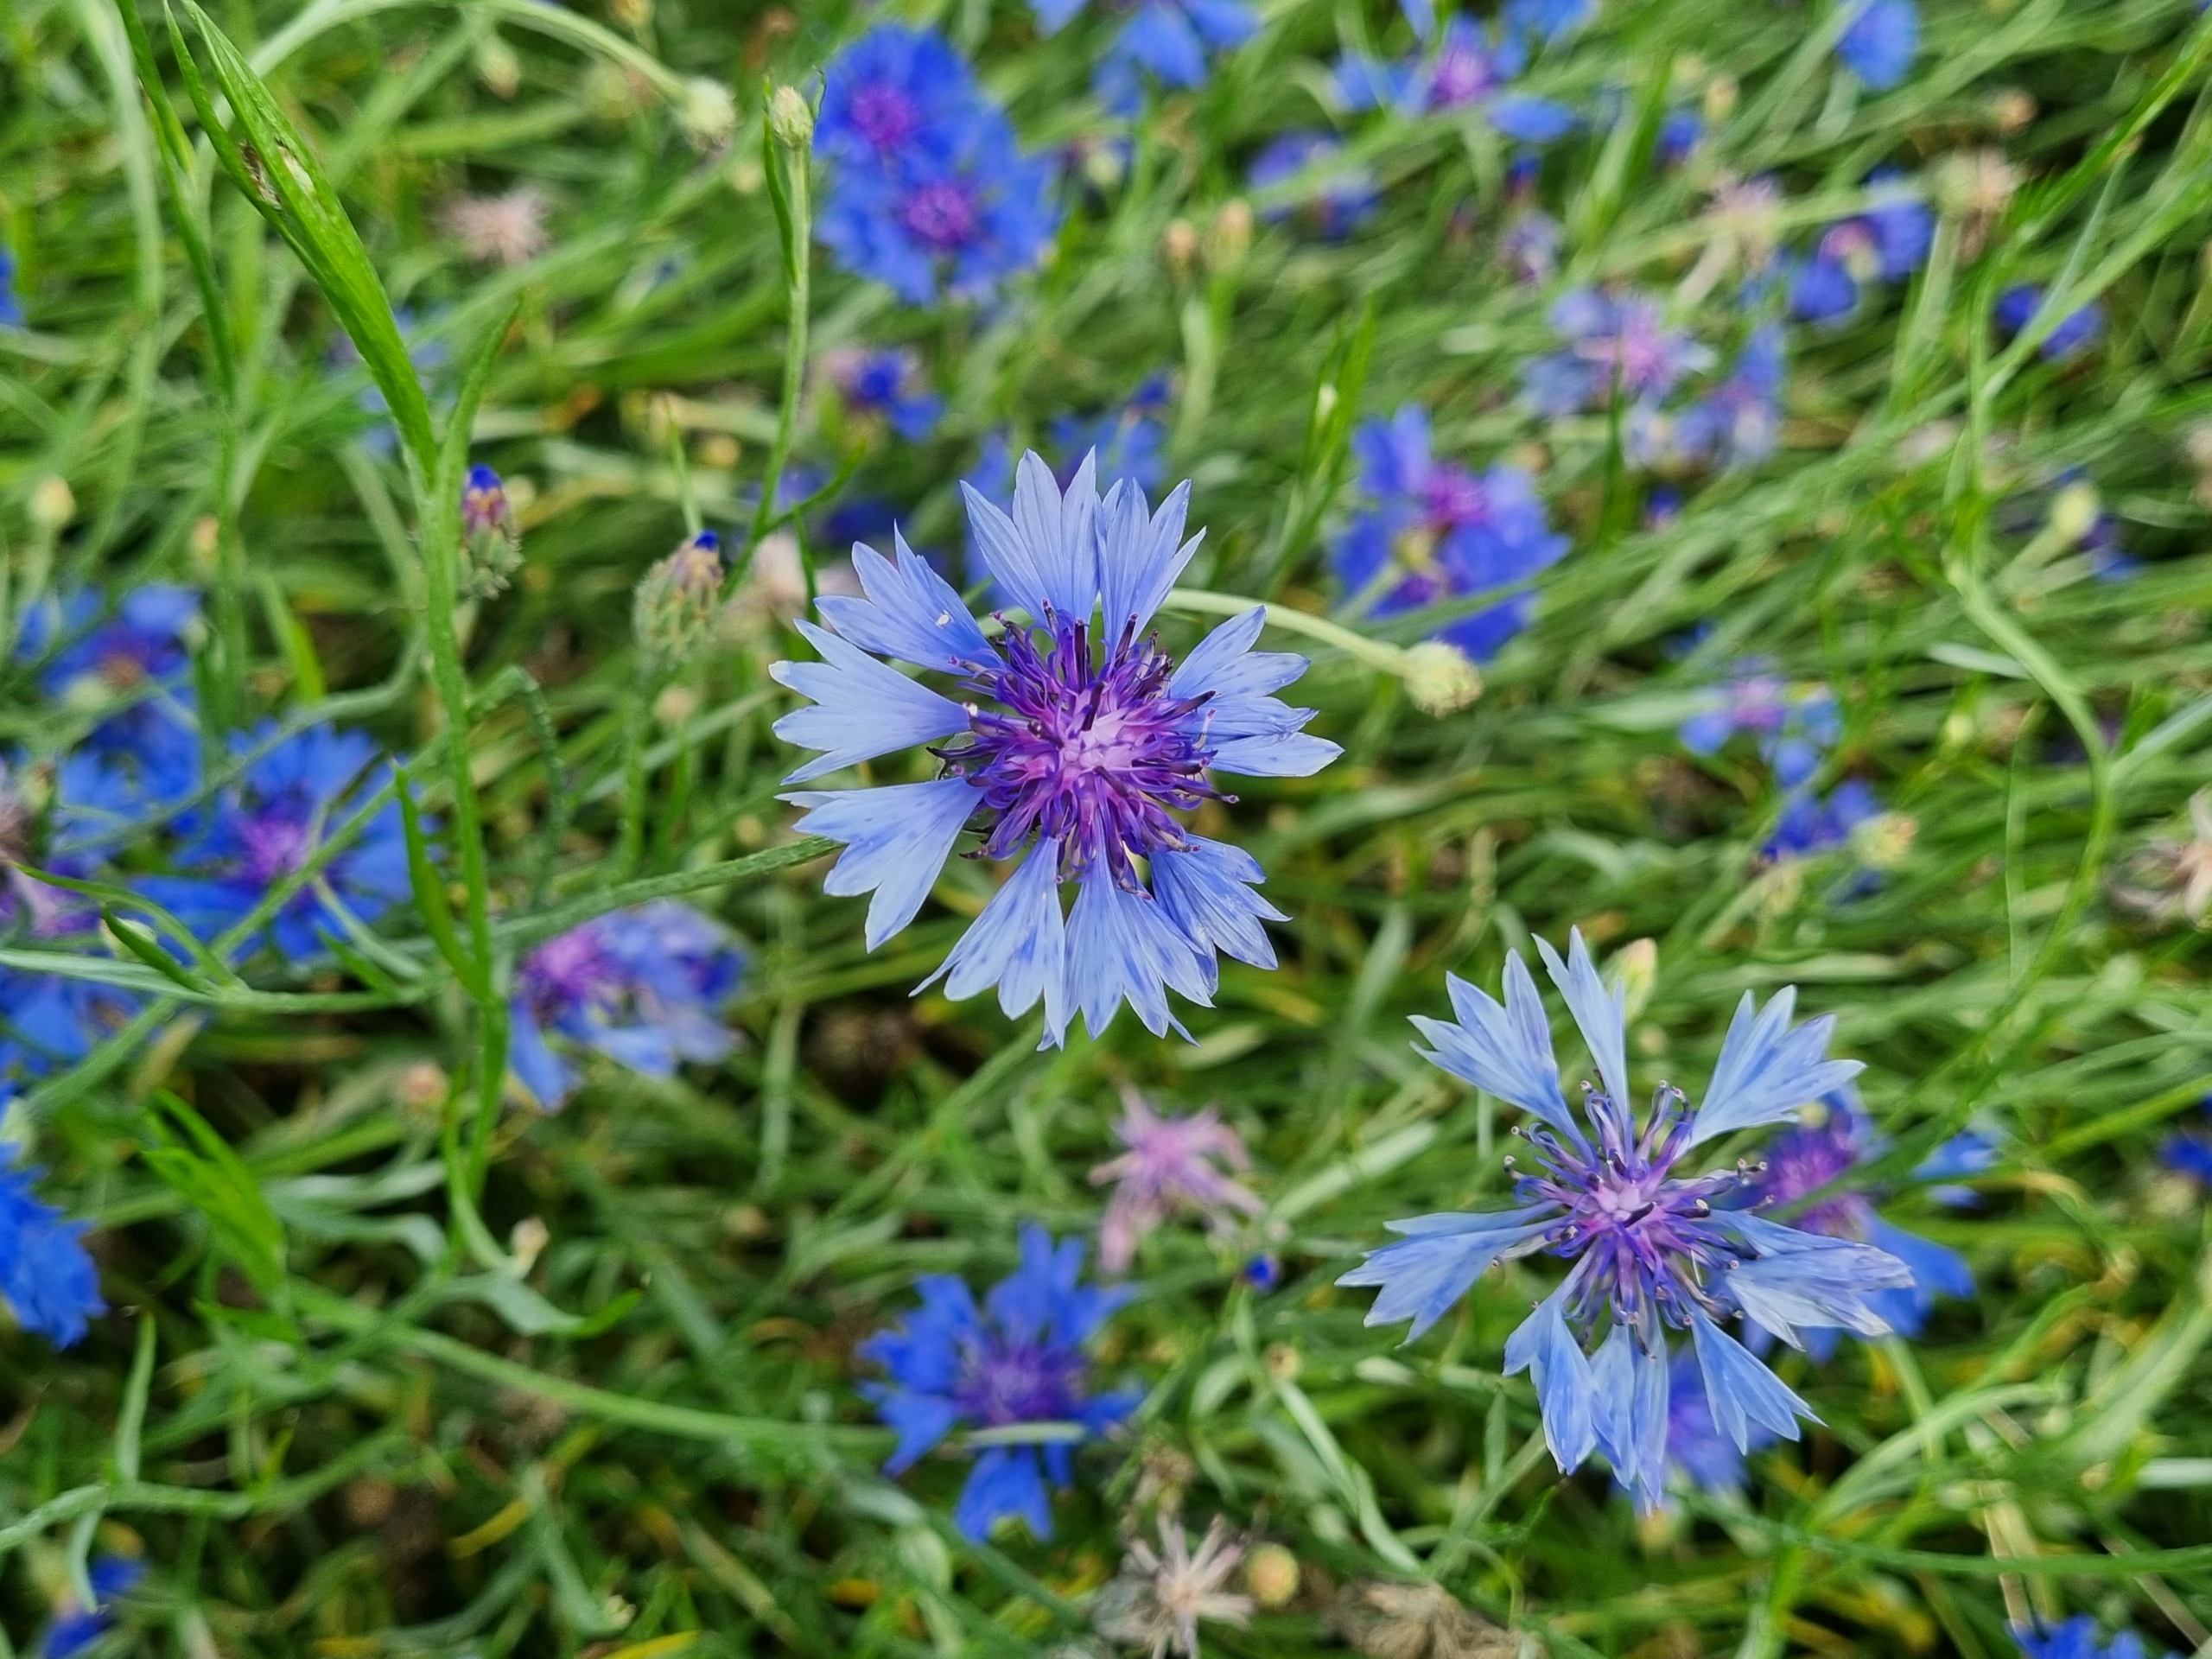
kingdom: Plantae
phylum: Tracheophyta
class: Magnoliopsida
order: Asterales
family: Asteraceae
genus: Centaurea
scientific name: Centaurea cyanus
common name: Kornblomst
